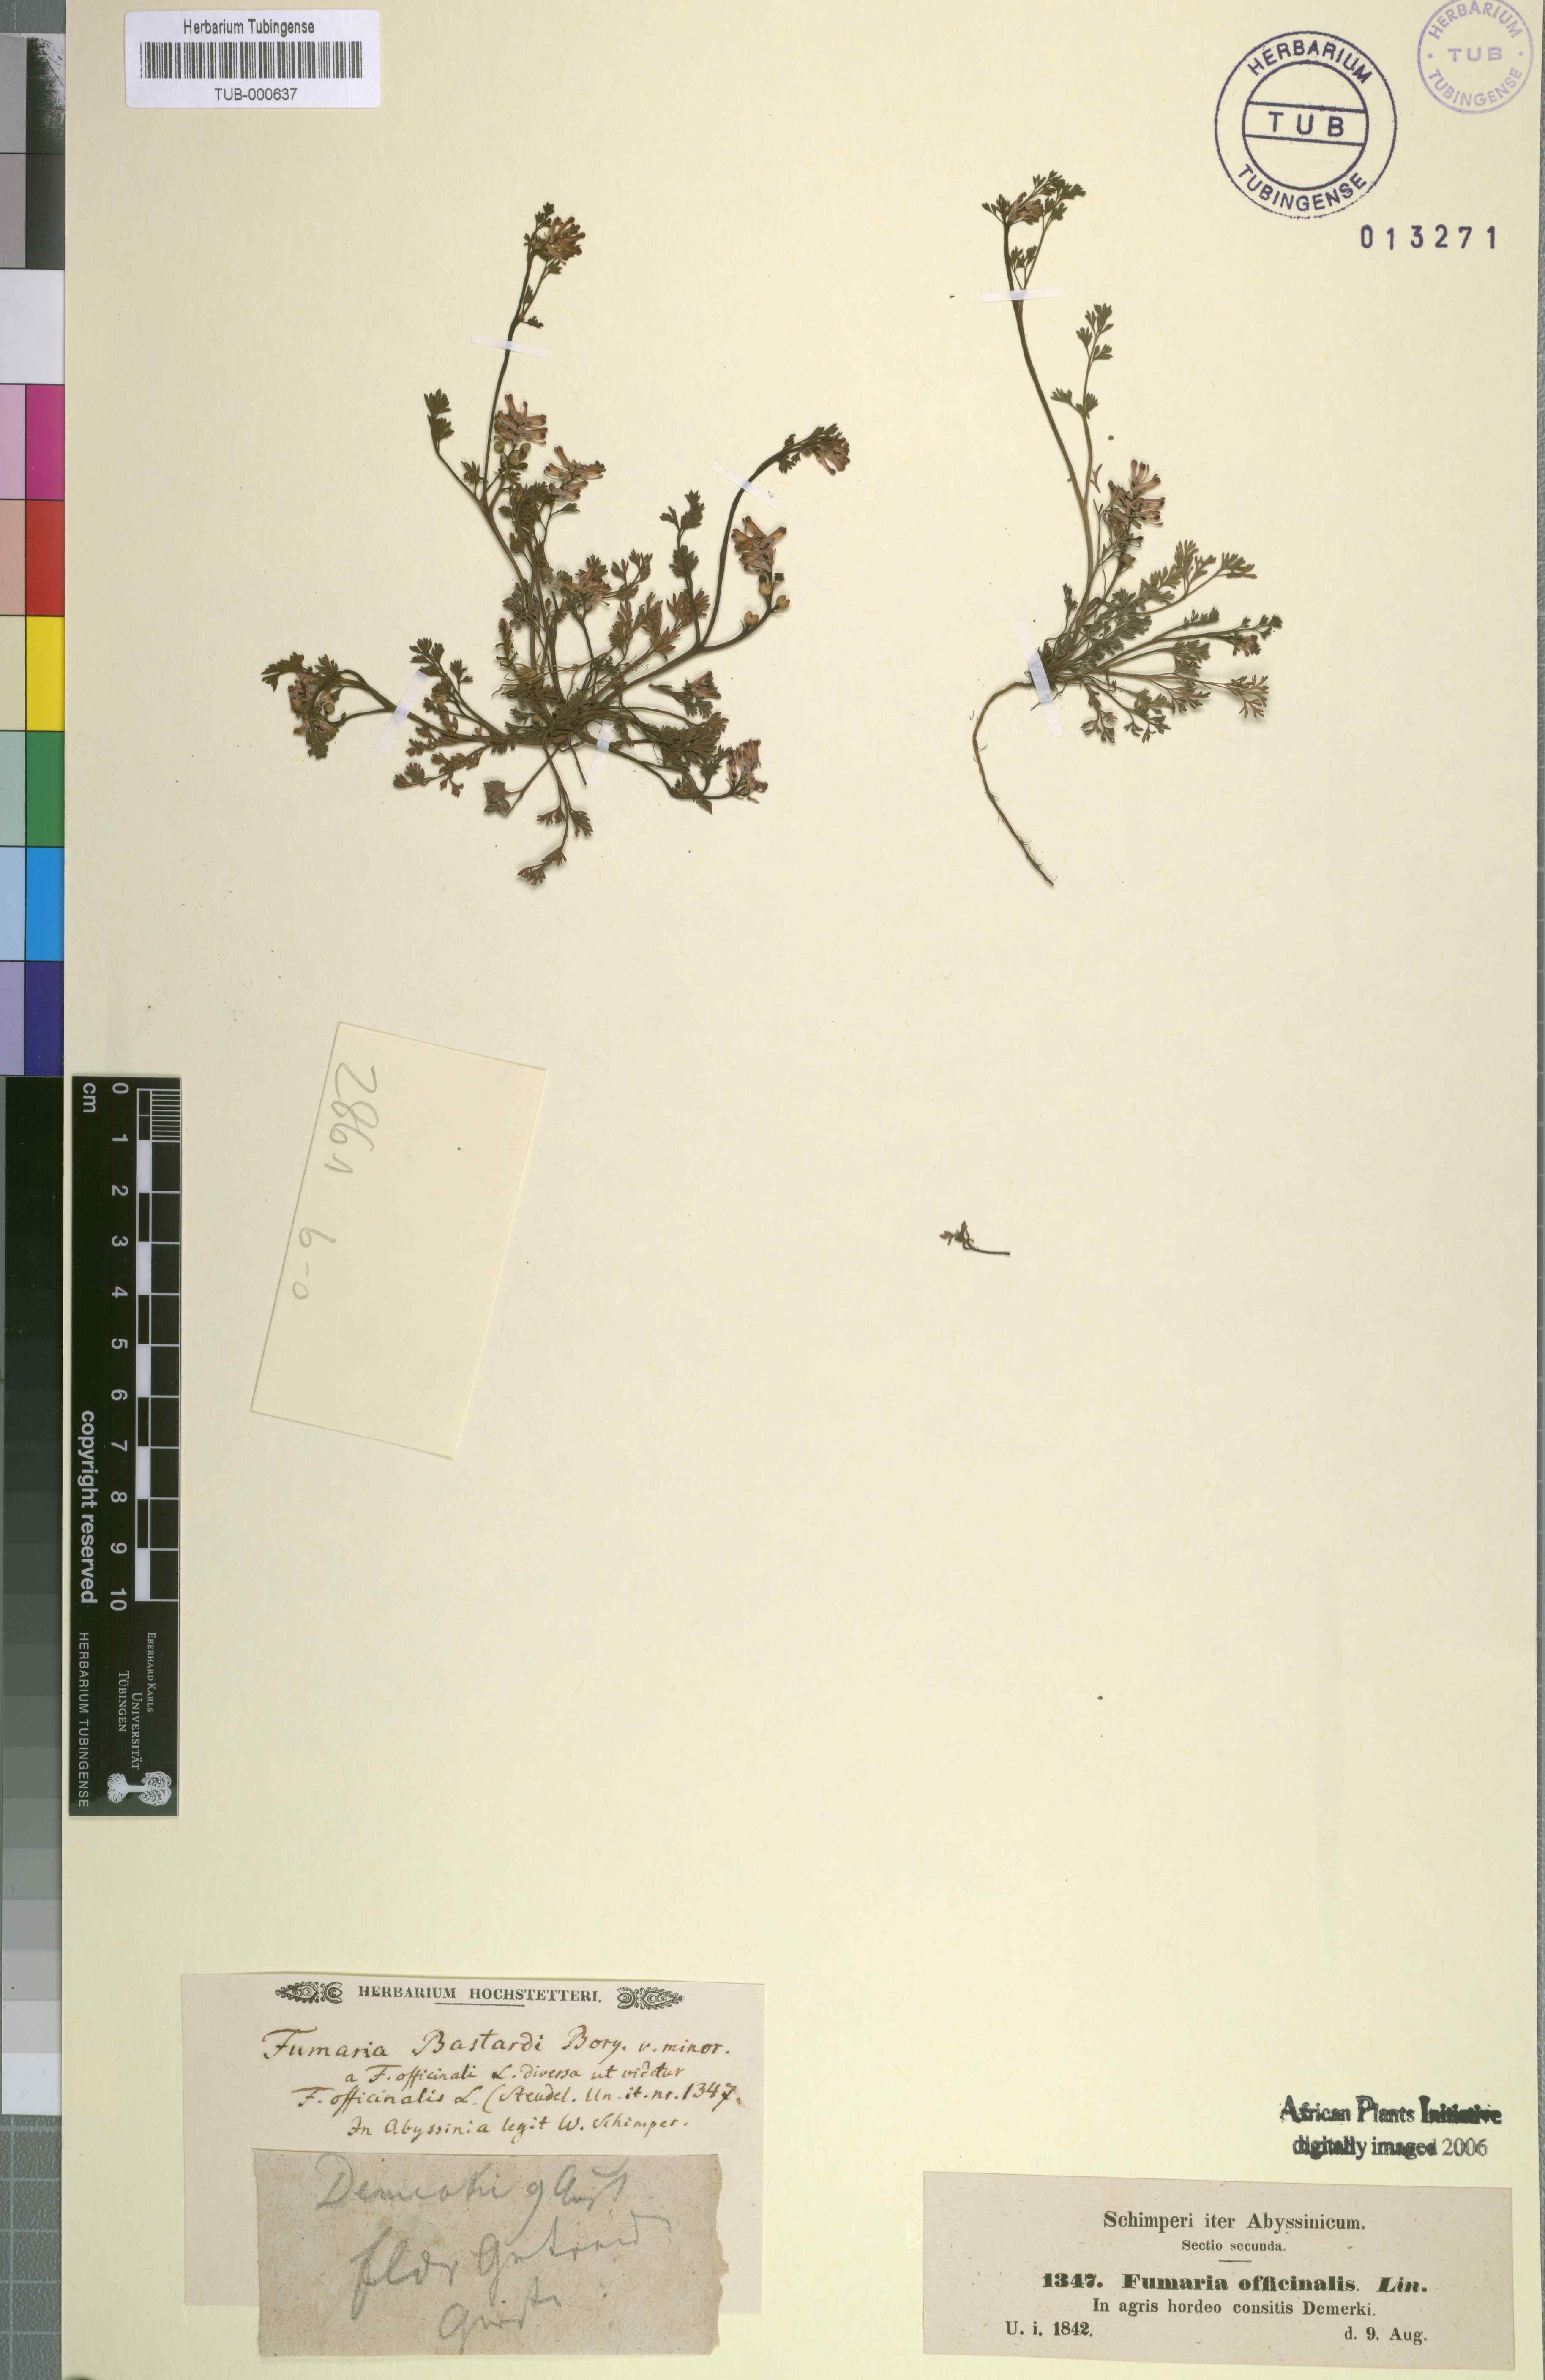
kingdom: Plantae
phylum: Tracheophyta
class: Magnoliopsida
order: Ranunculales
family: Papaveraceae
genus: Fumaria
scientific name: Fumaria officinalis
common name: Common fumitory
